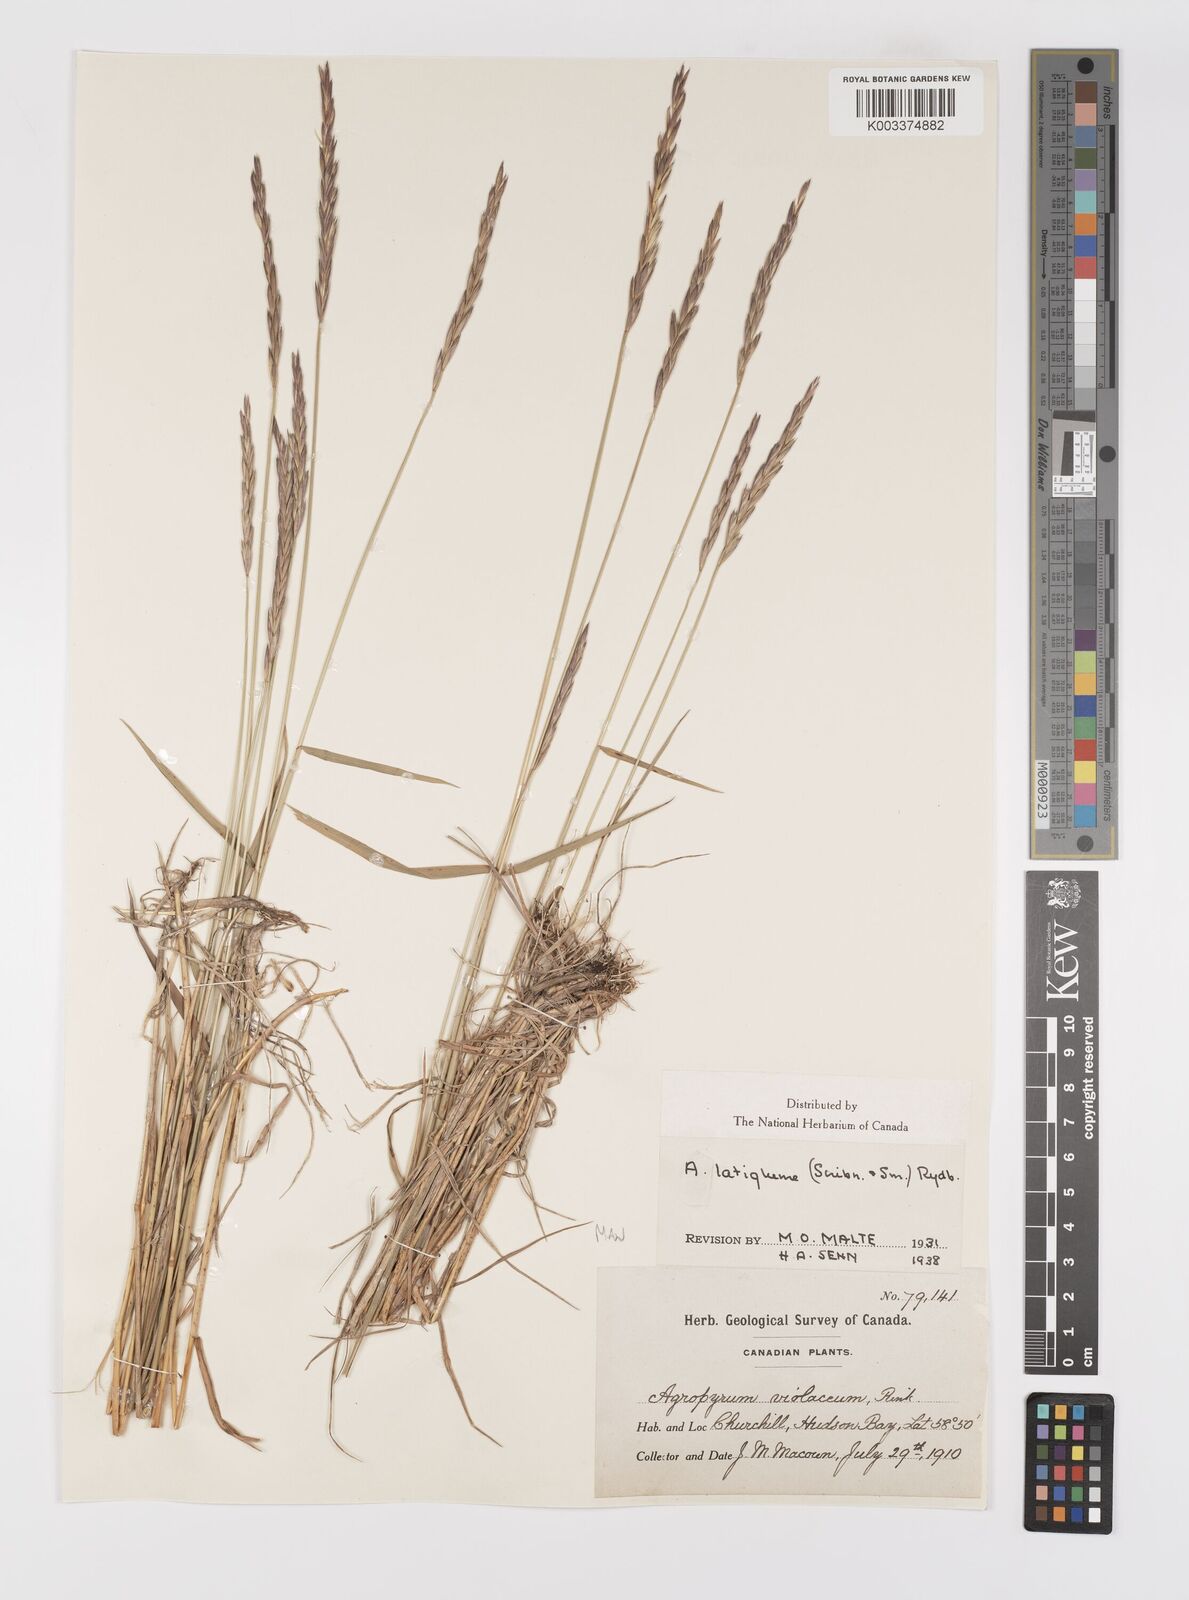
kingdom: Plantae
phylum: Tracheophyta
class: Liliopsida
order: Poales
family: Poaceae
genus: Elymus
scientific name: Elymus violaceus
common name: Arctic wheatgrass
